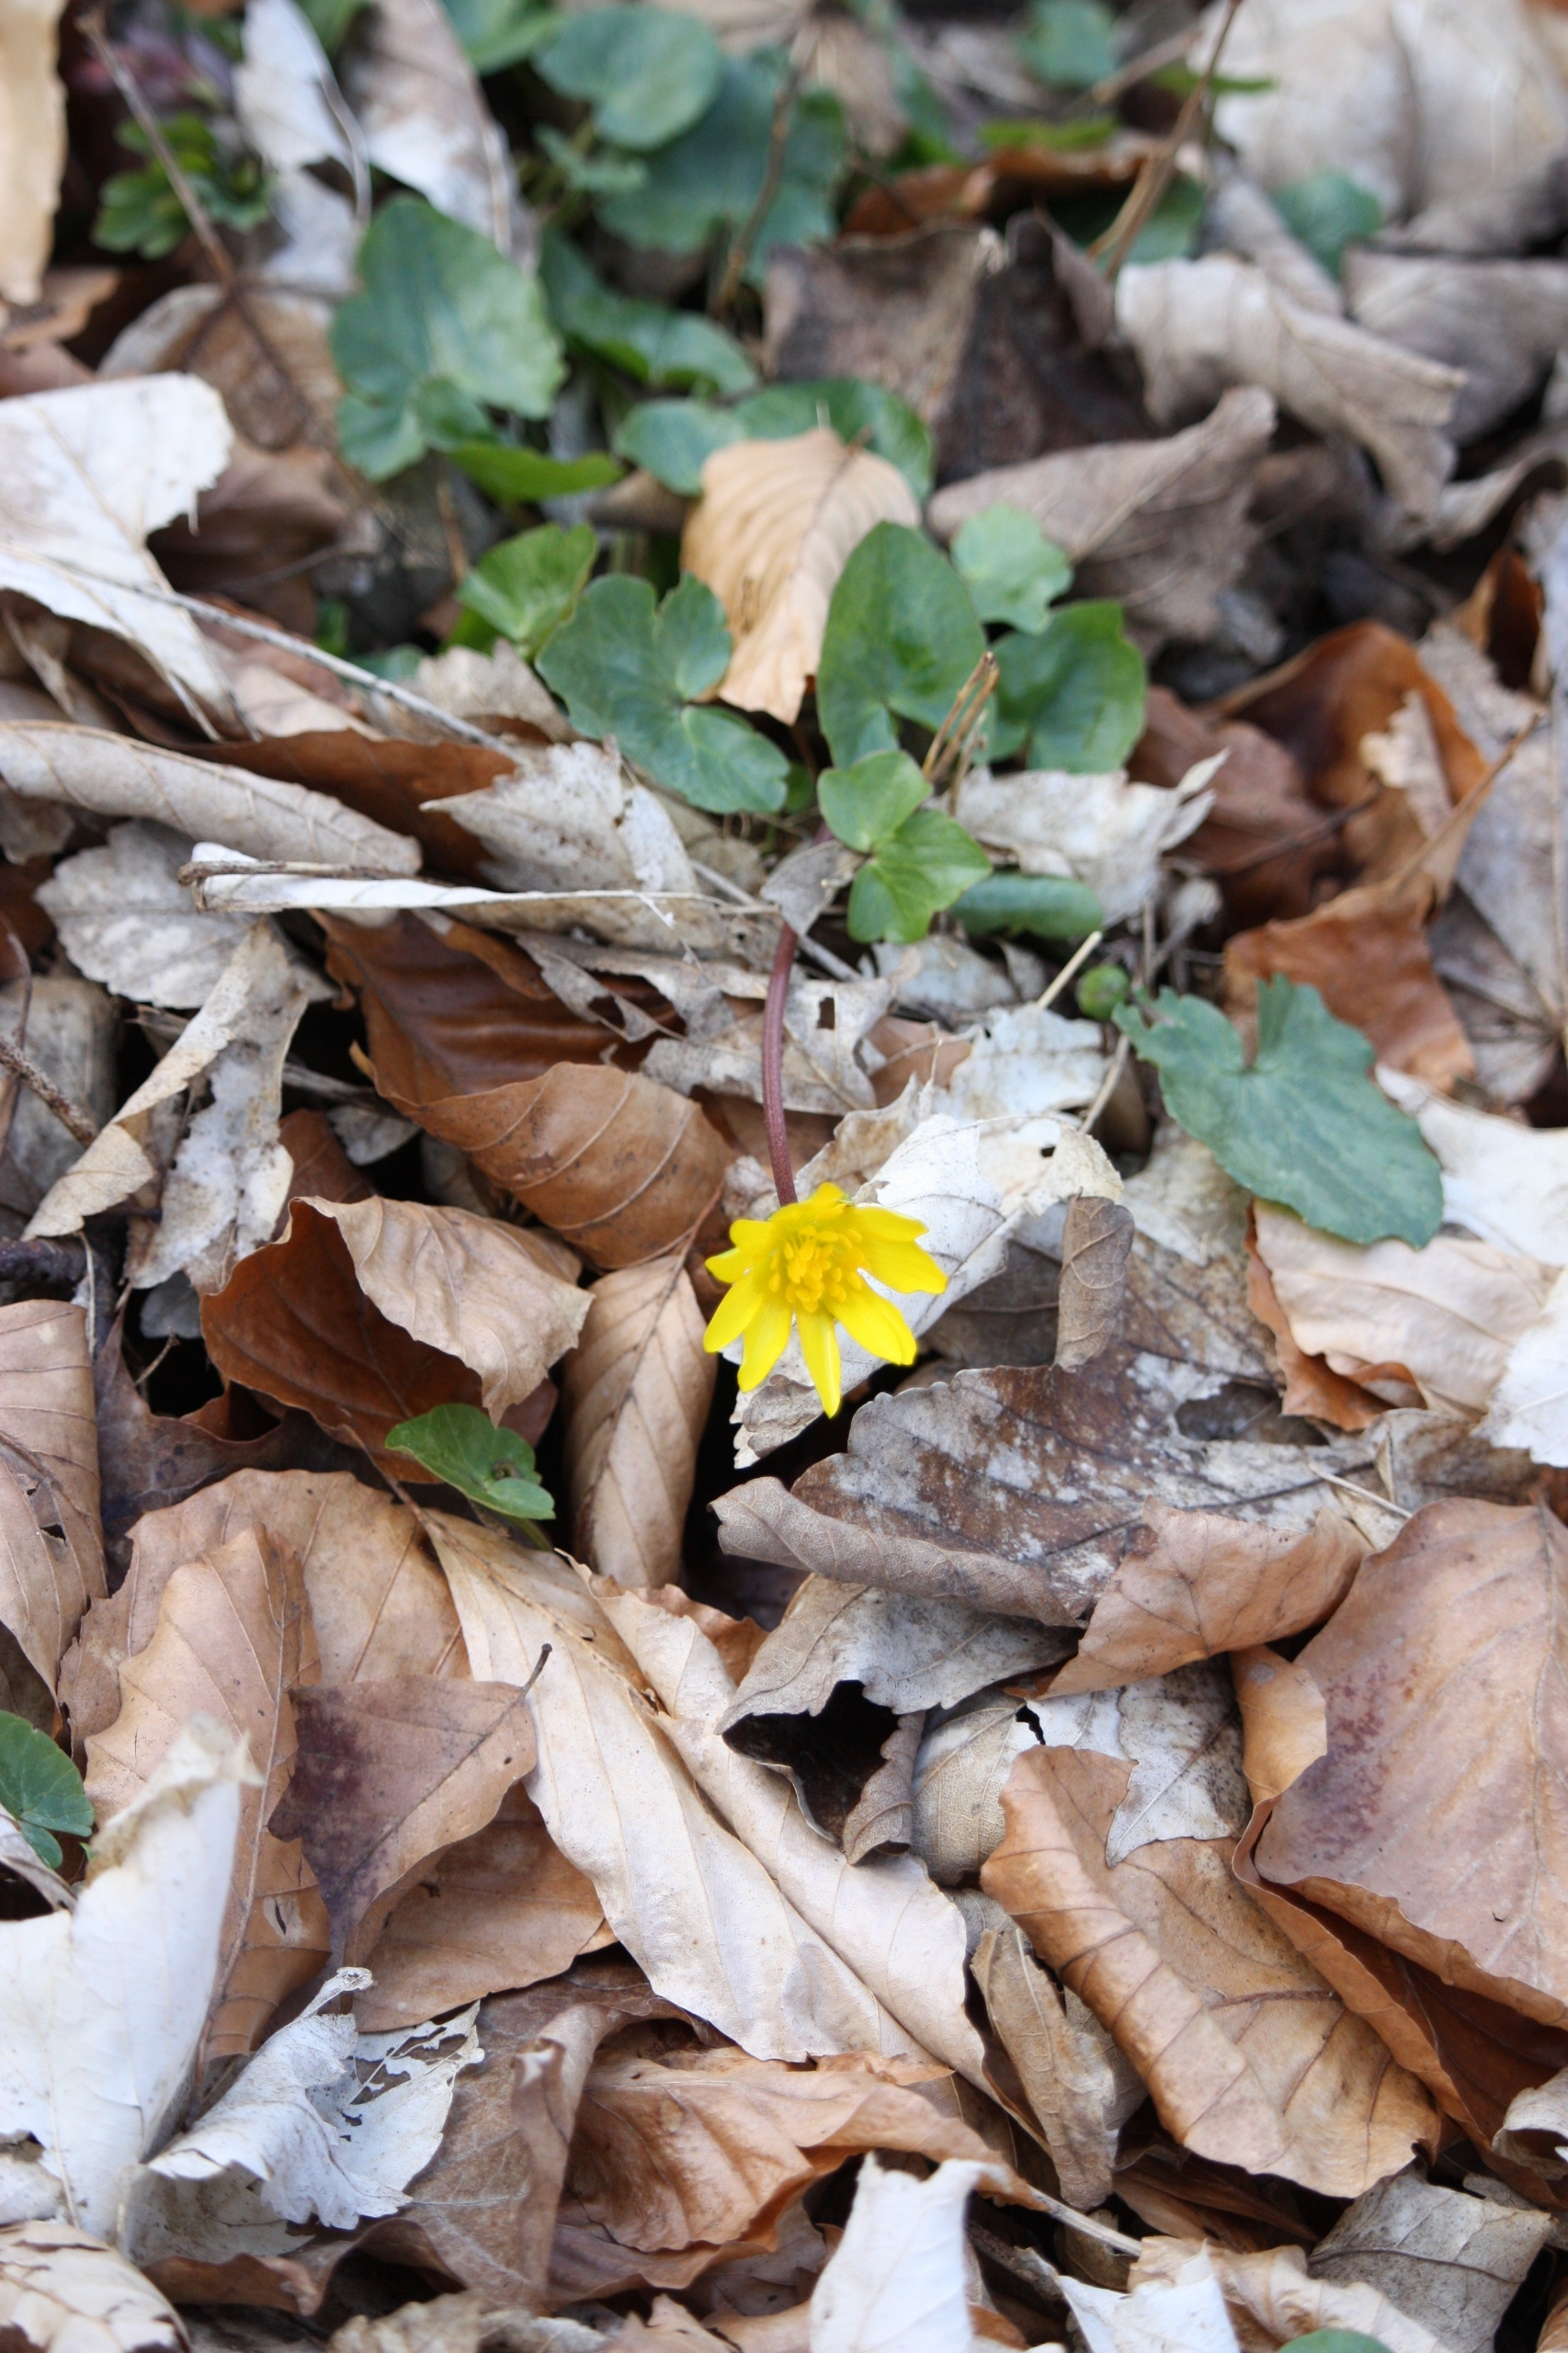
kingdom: Plantae
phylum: Tracheophyta
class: Magnoliopsida
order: Ranunculales
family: Ranunculaceae
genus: Ficaria
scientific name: Ficaria verna
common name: Vorterod
